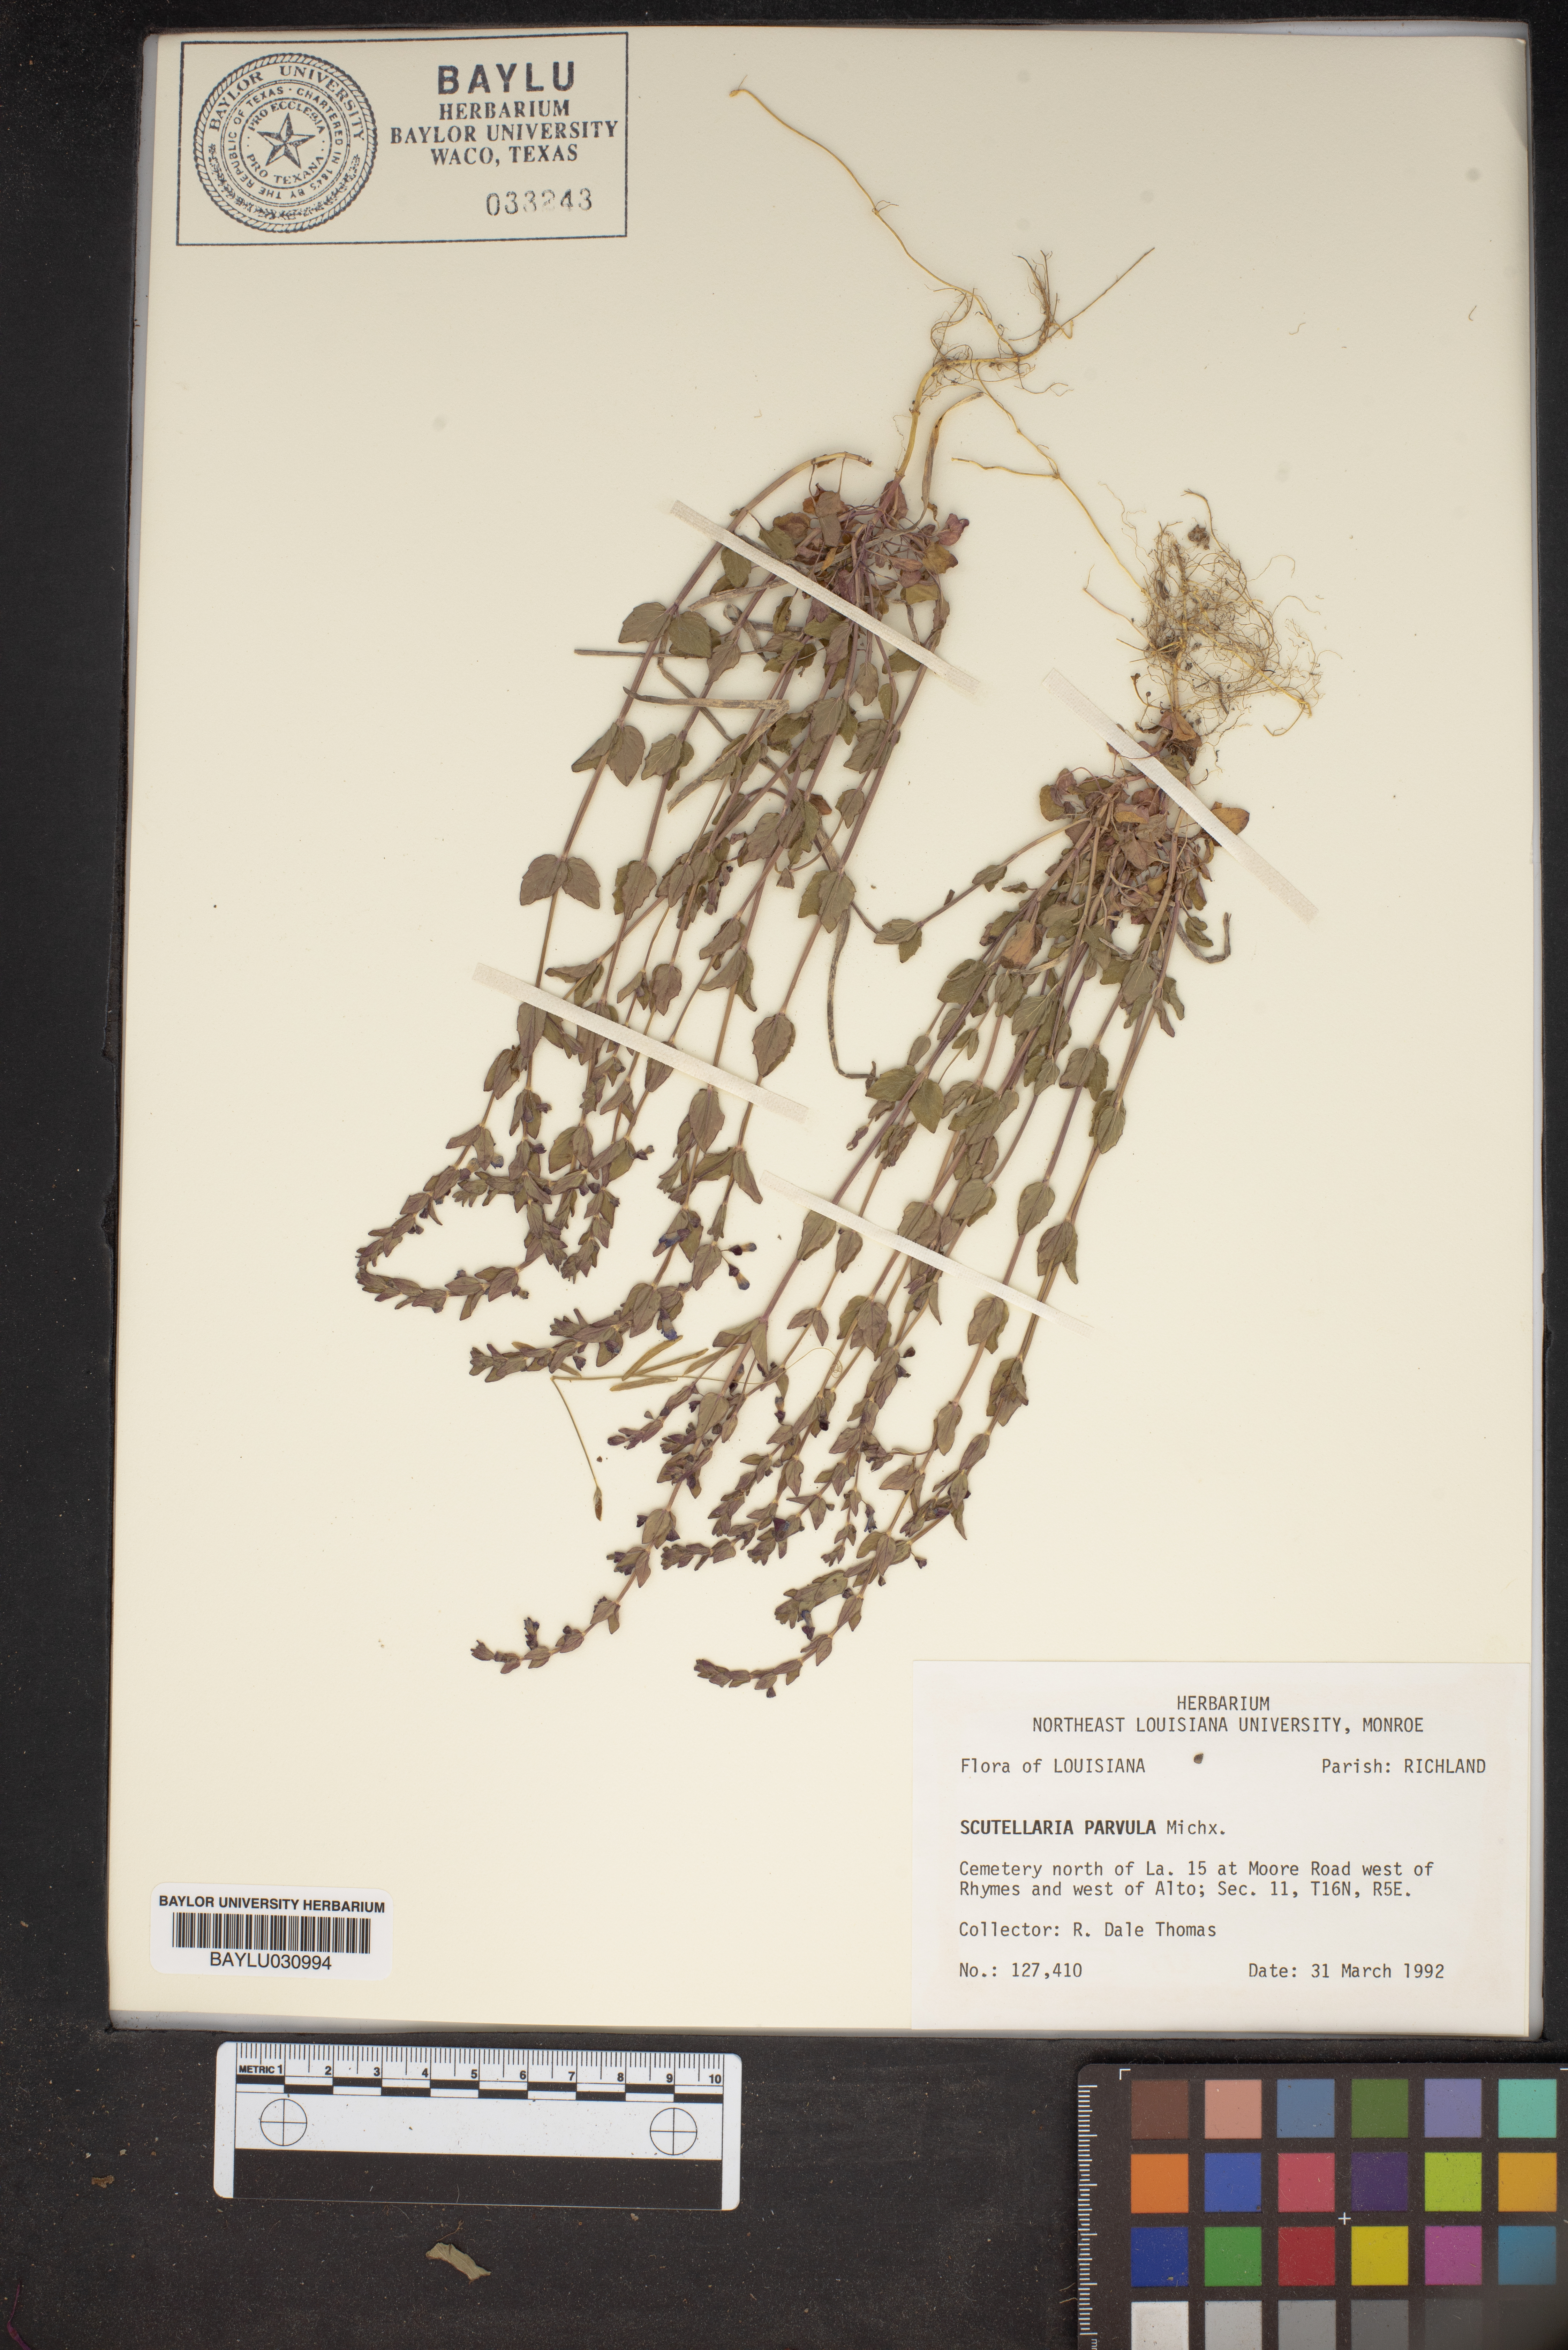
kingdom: Plantae
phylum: Tracheophyta
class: Magnoliopsida
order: Lamiales
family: Lamiaceae
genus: Scutellaria
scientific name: Scutellaria parvula
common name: Little scullcap
